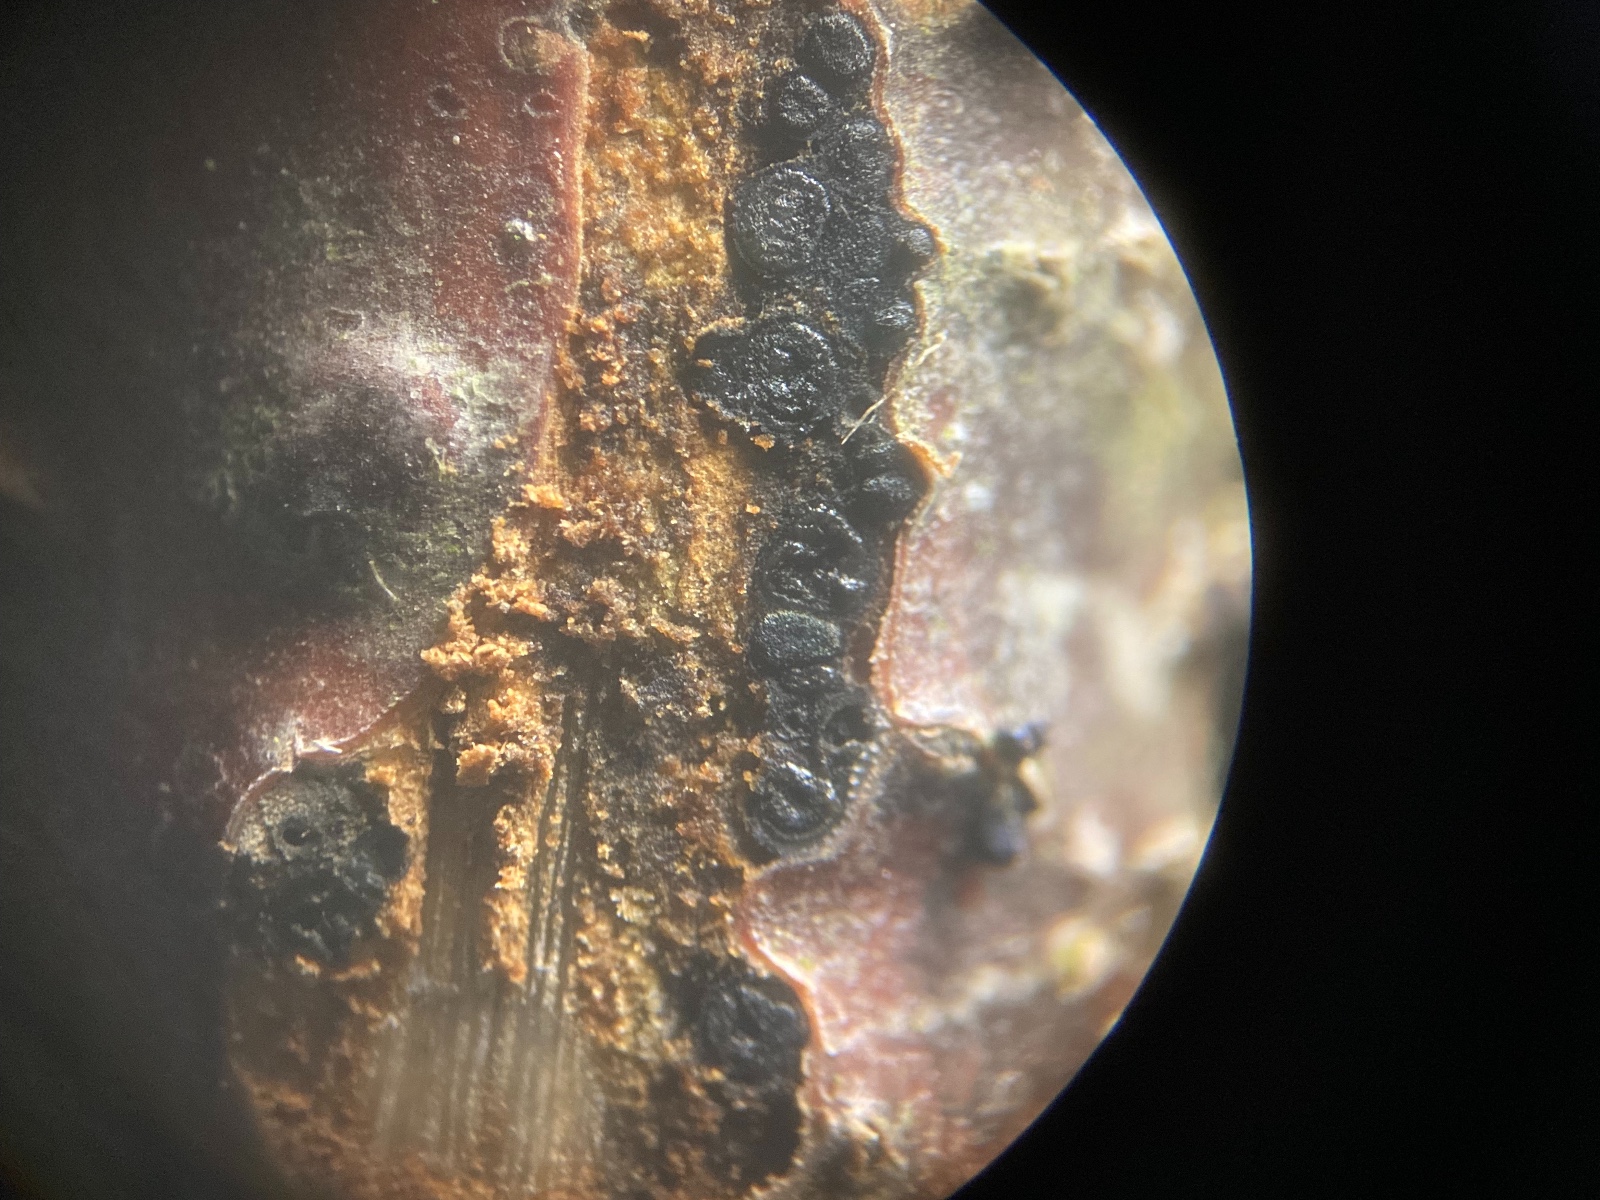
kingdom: Fungi
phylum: Ascomycota
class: Dothideomycetes
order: Botryosphaeriales
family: Botryosphaeriaceae
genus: Diplodia
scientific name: Diplodia
